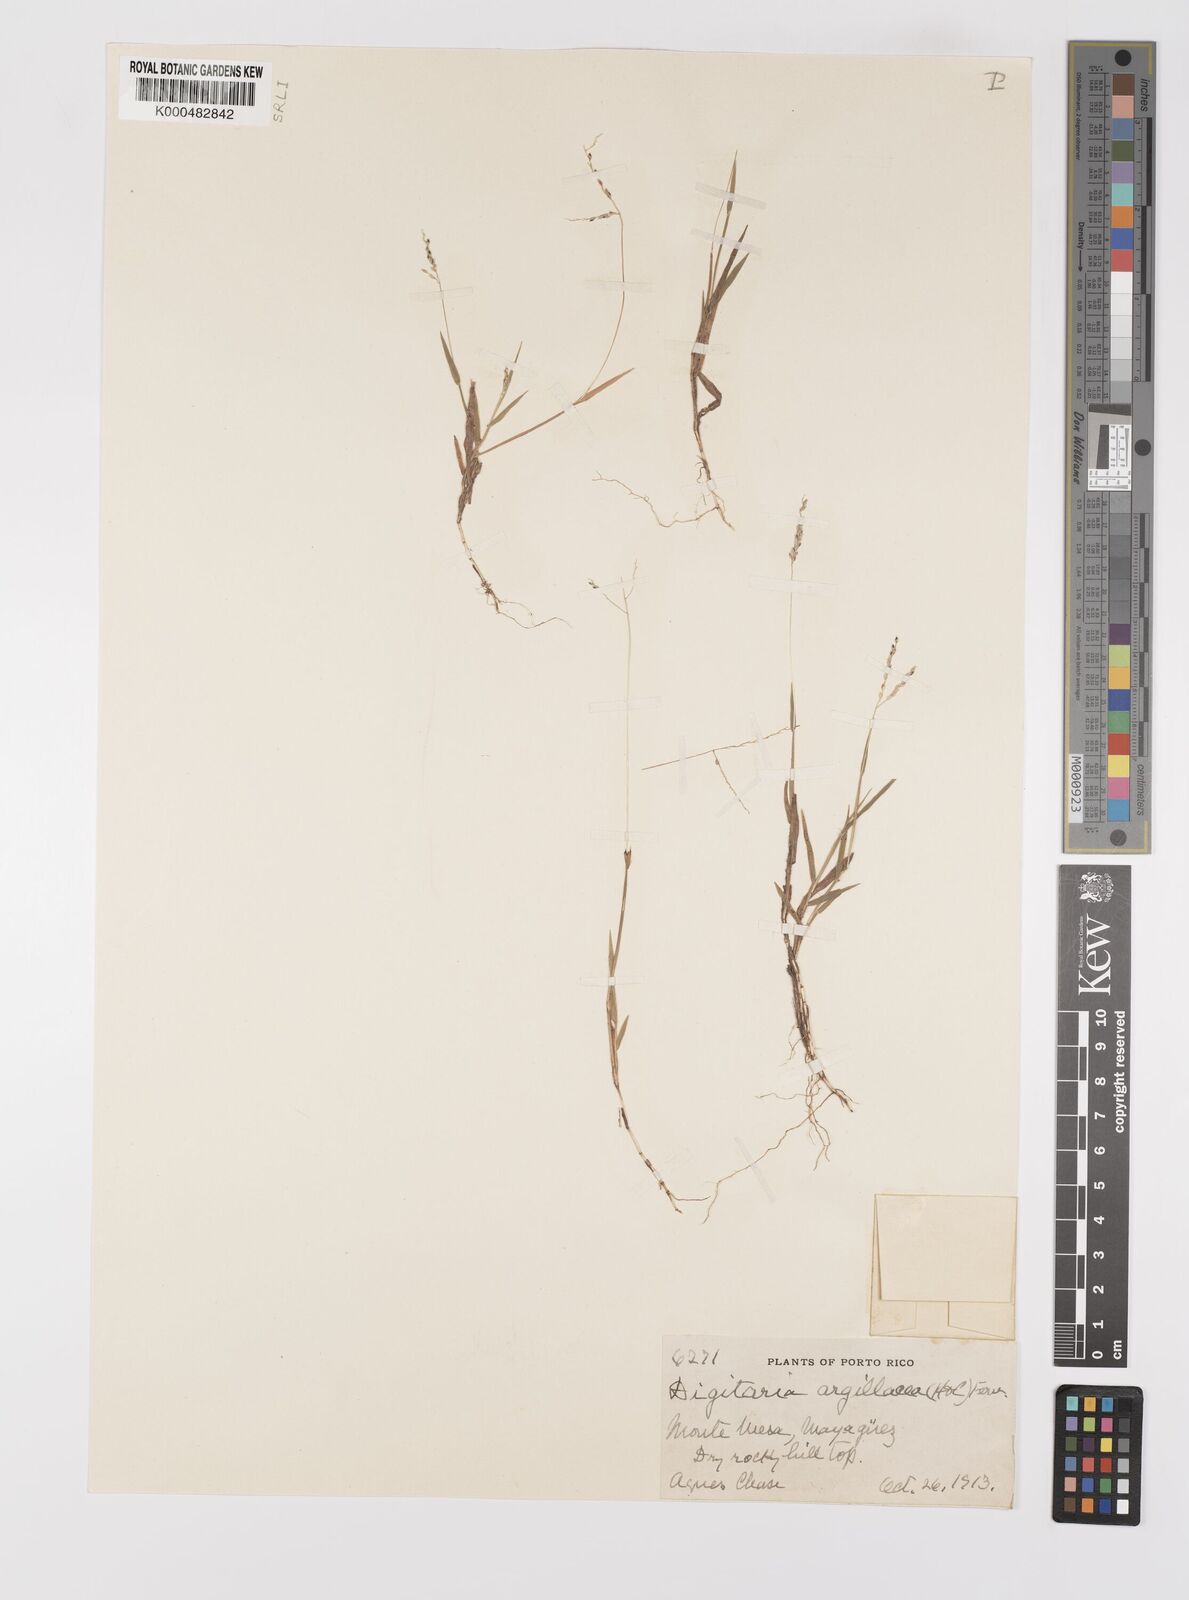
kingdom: Plantae
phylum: Tracheophyta
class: Liliopsida
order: Poales
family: Poaceae
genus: Digitaria
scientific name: Digitaria curvinervis
